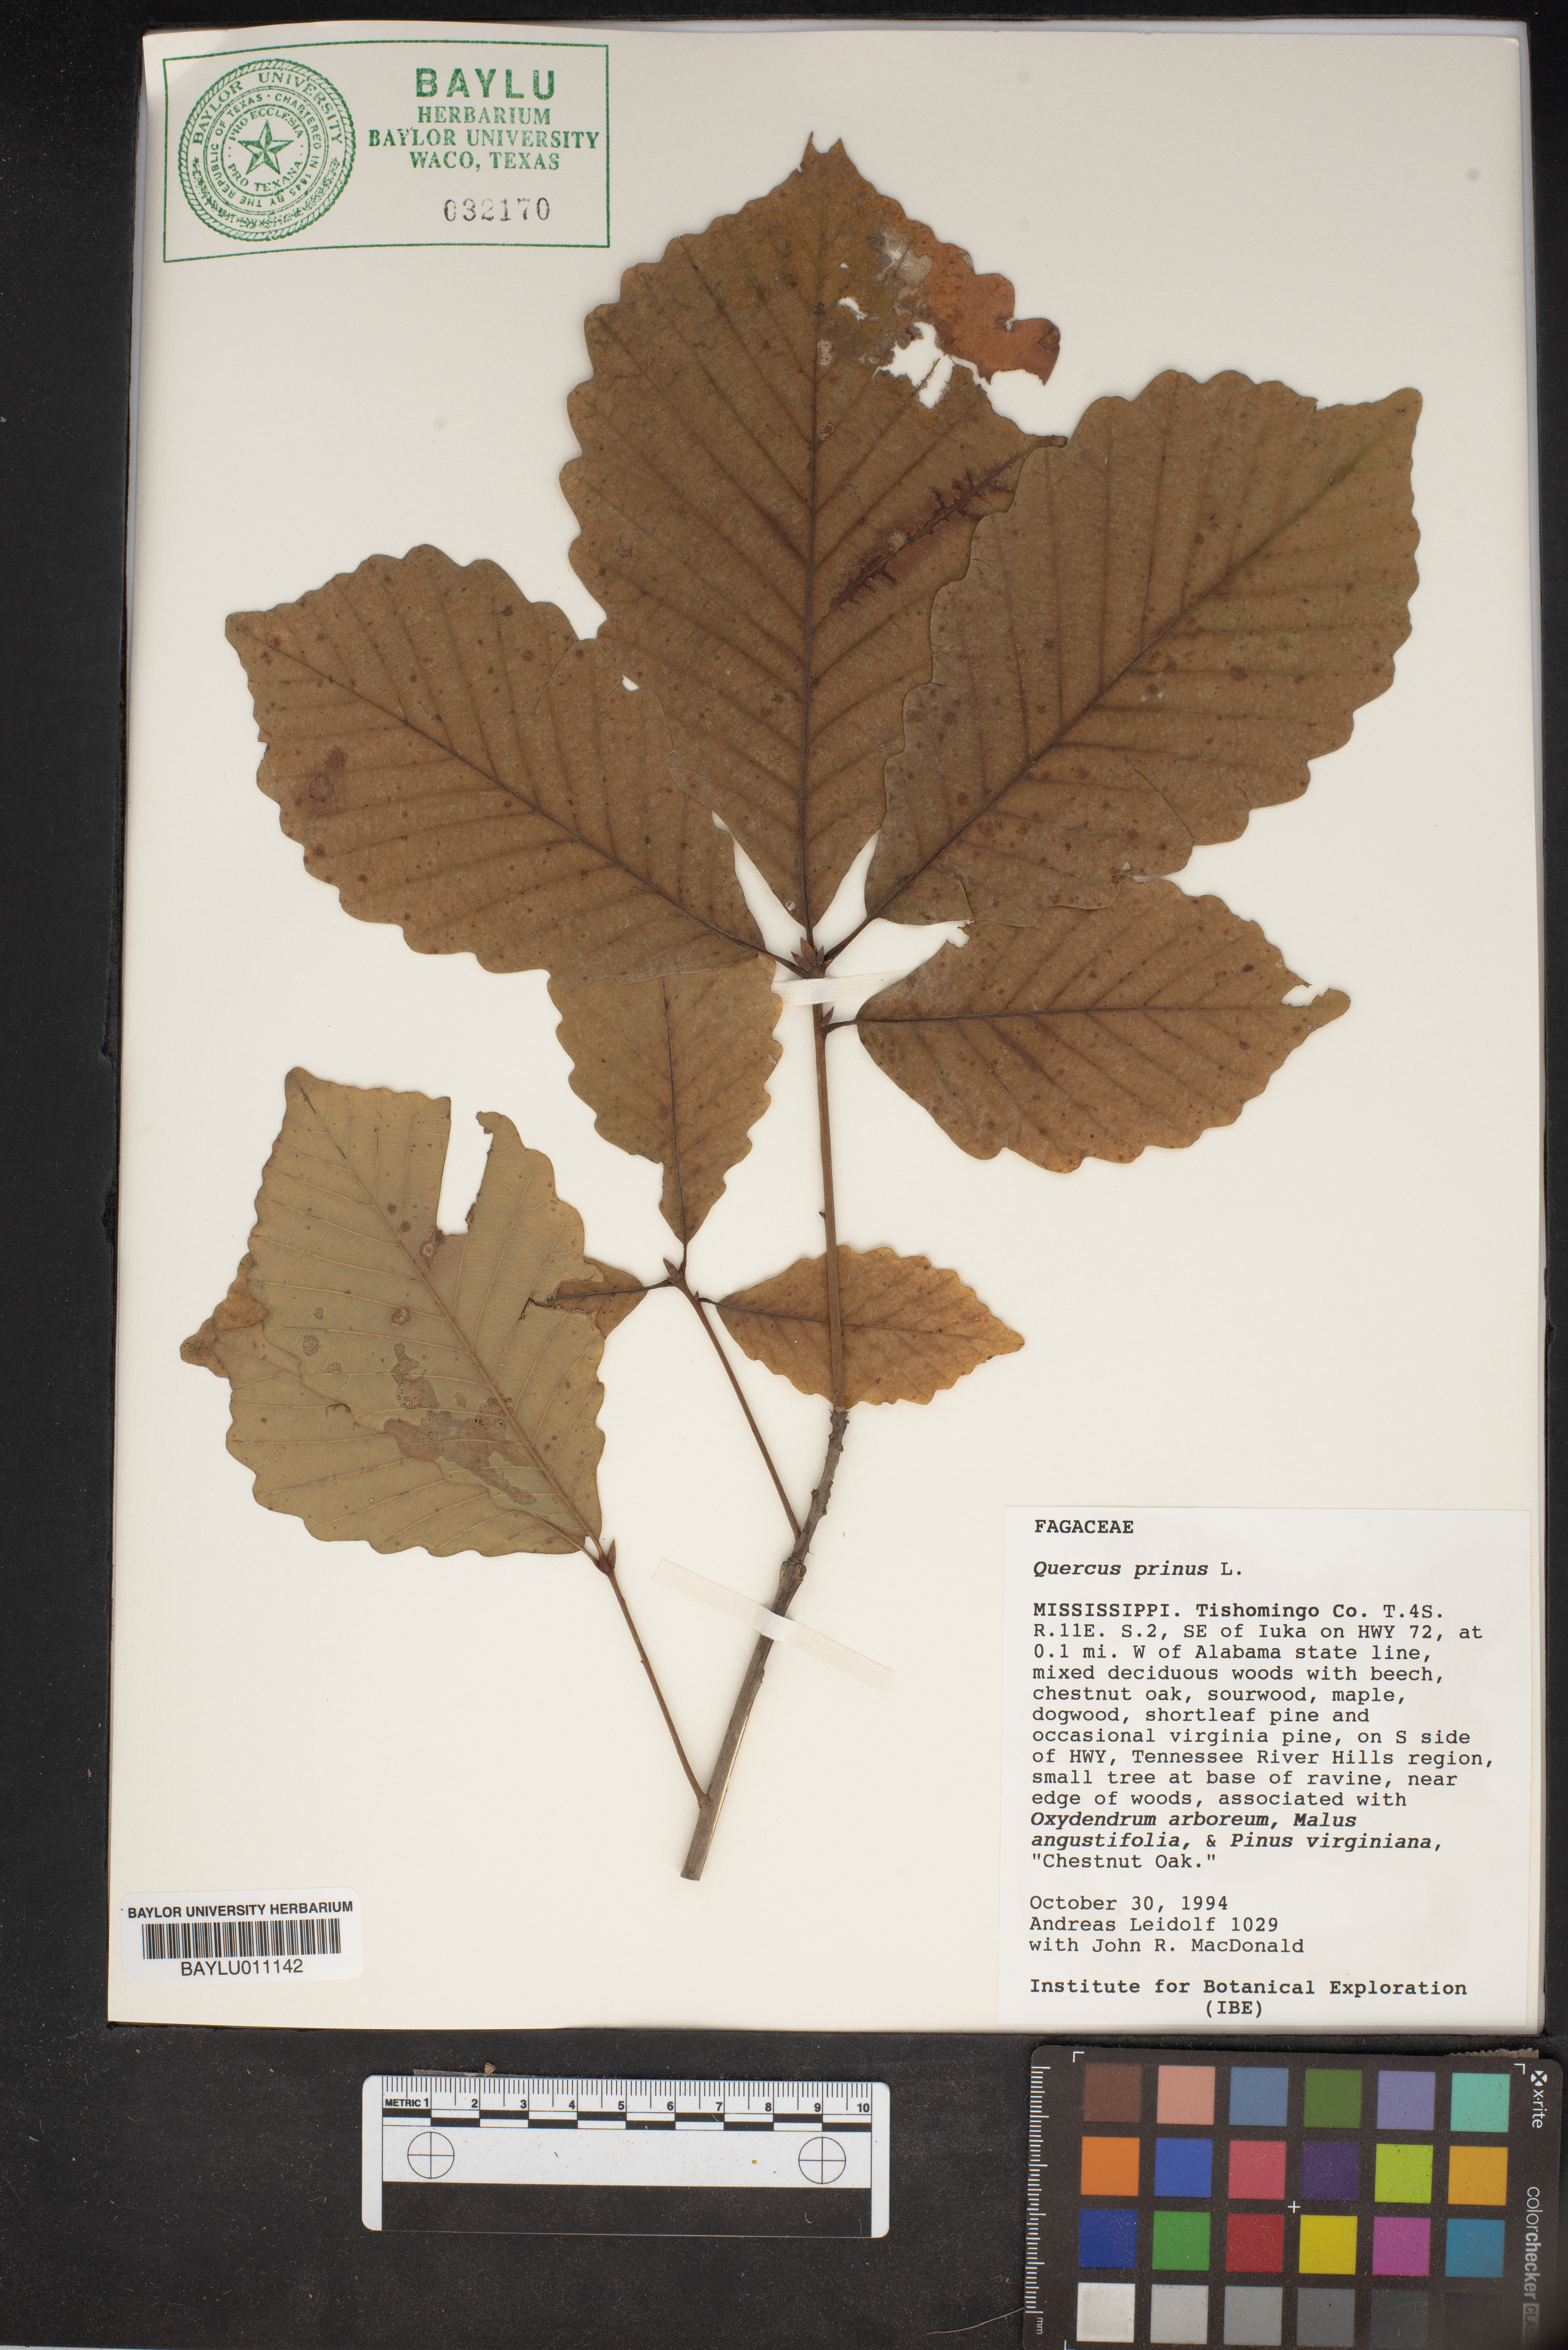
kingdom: Plantae
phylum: Tracheophyta
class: Magnoliopsida
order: Fagales
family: Fagaceae
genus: Quercus
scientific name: Quercus michauxii
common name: Swamp chestnut oak
